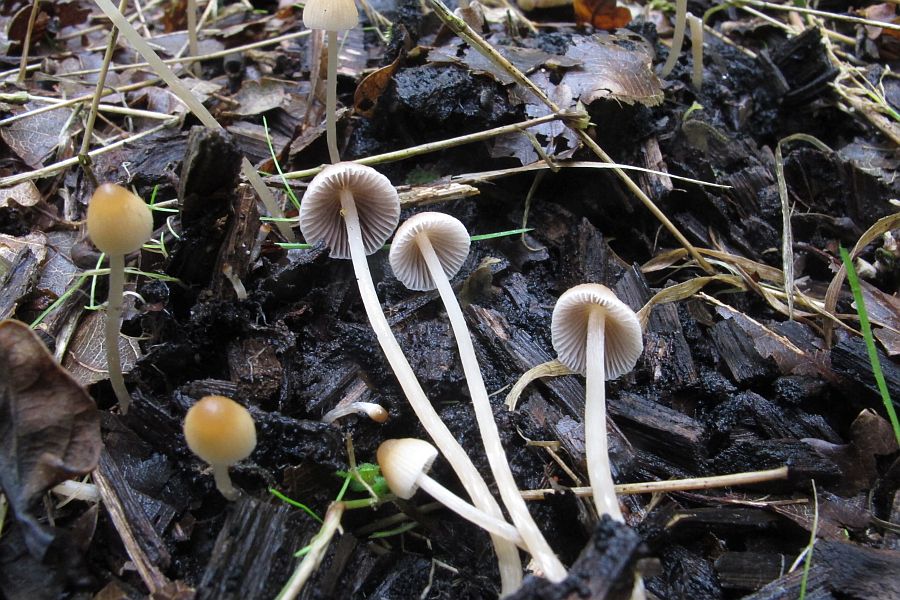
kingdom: Fungi
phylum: Basidiomycota
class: Agaricomycetes
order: Agaricales
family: Psathyrellaceae
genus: Psathyrella
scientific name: Psathyrella corrugis
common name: rødægget mørkhat
